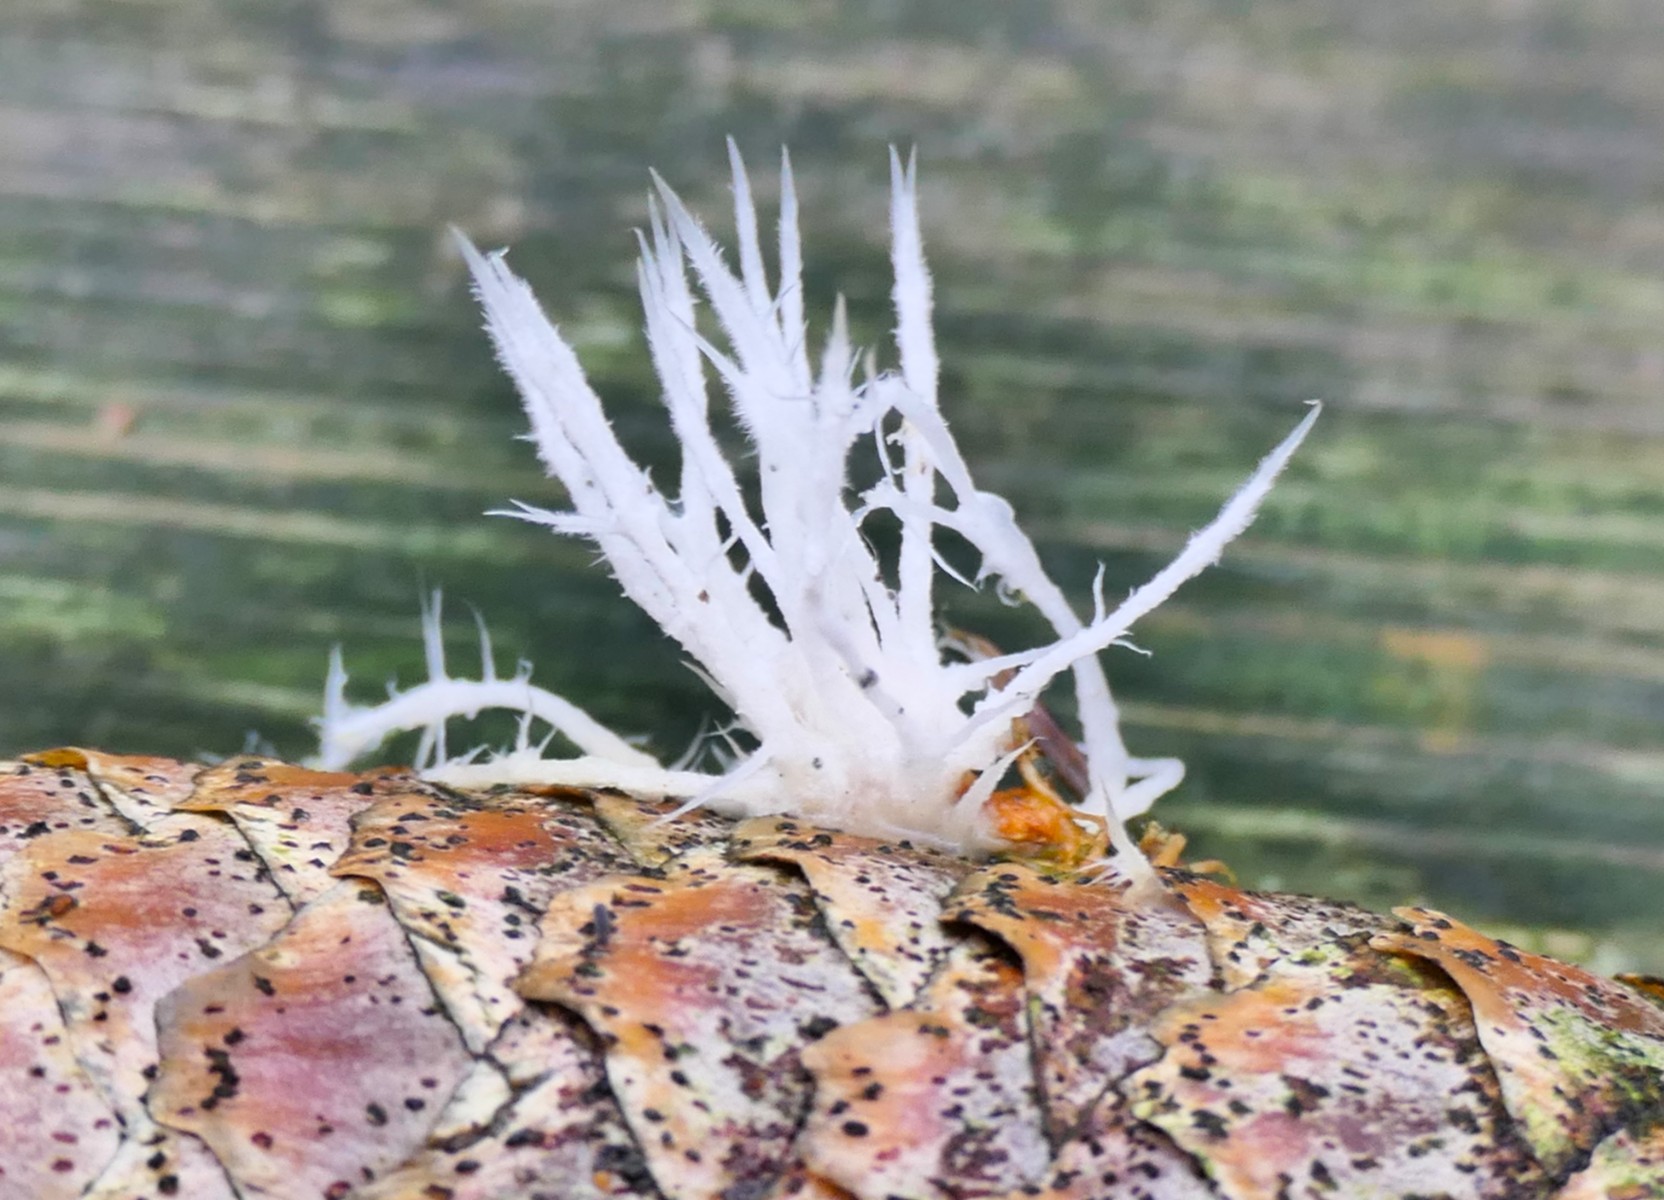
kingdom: Fungi
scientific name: Fungi
